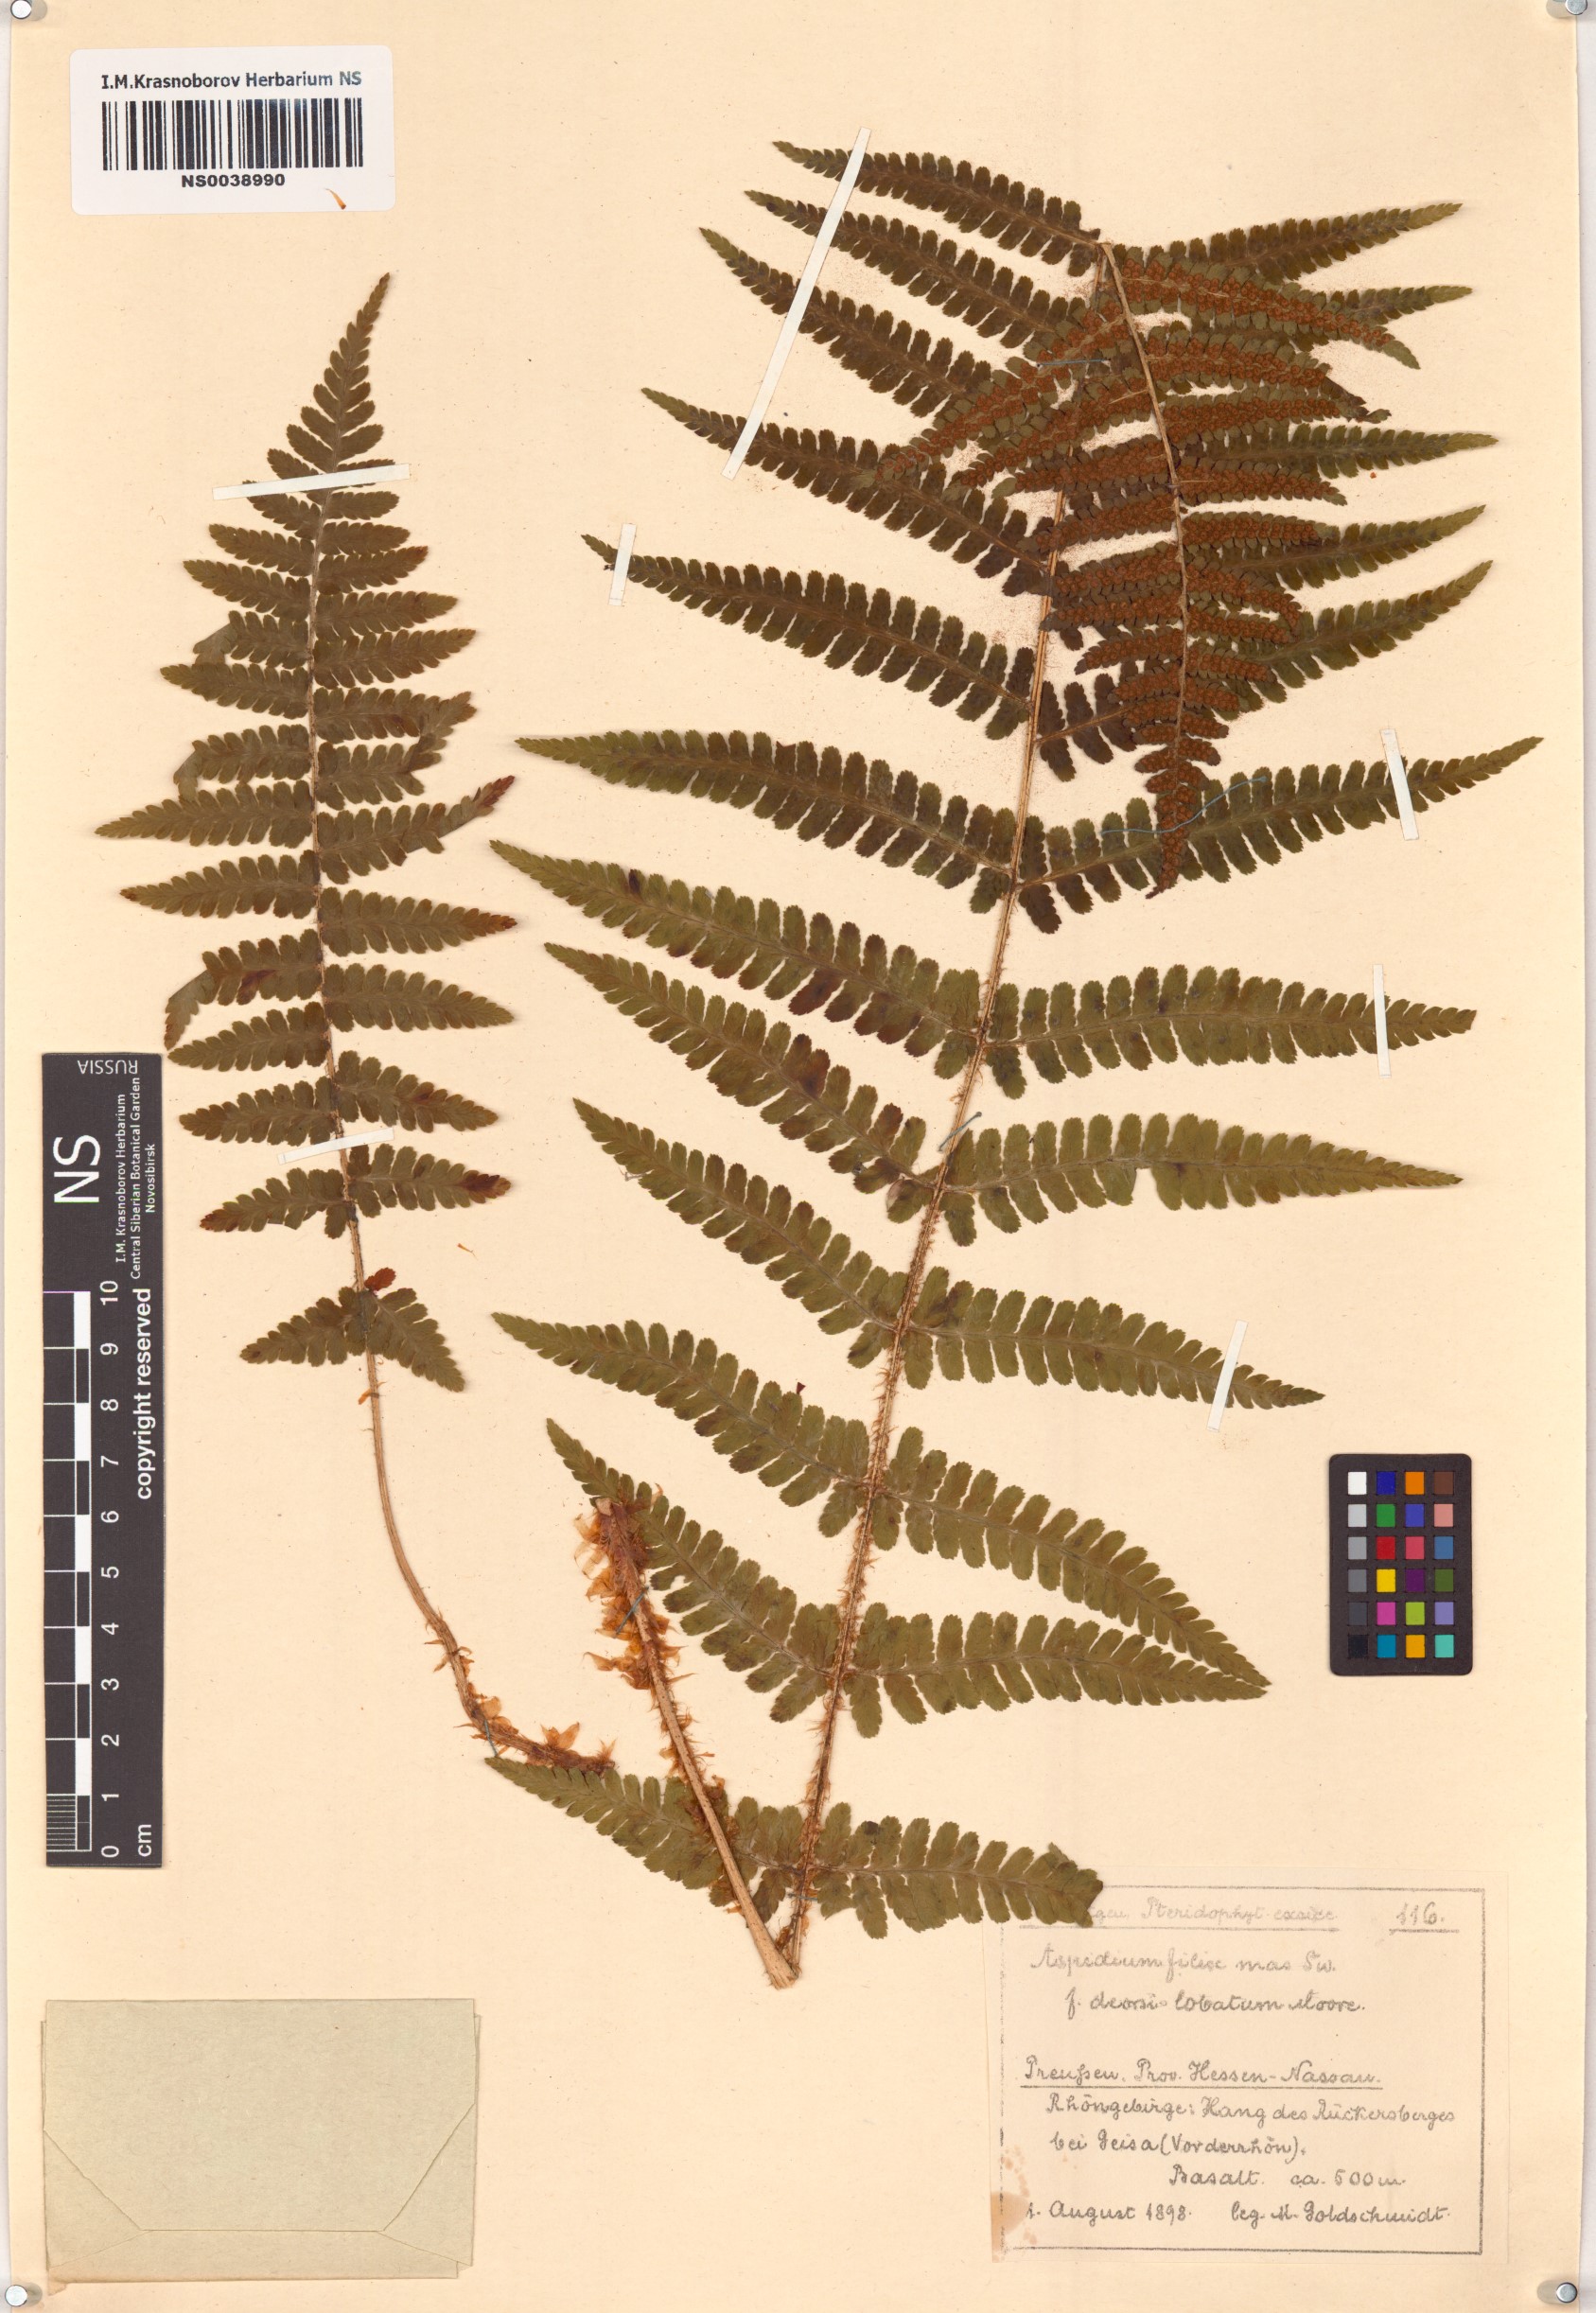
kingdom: Plantae
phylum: Tracheophyta
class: Polypodiopsida
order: Polypodiales
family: Dryopteridaceae
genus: Dryopteris
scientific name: Dryopteris filix-mas
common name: Male fern
